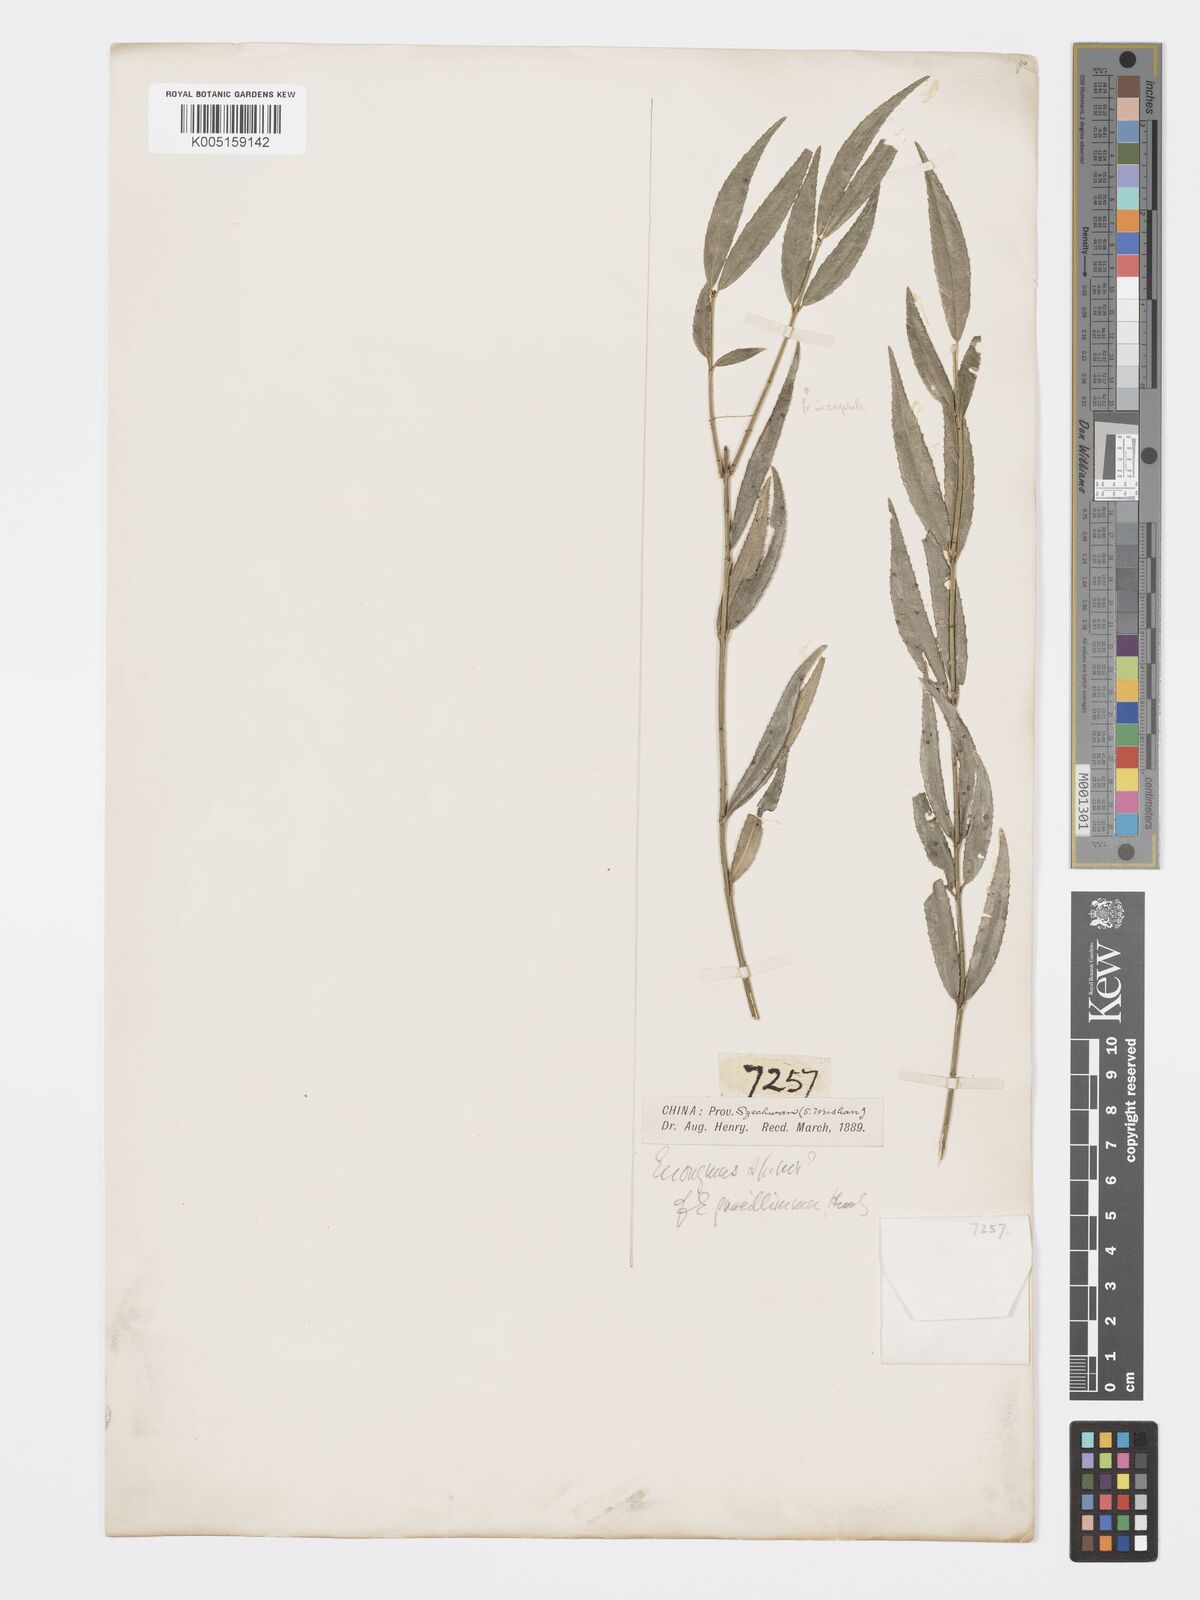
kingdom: Plantae
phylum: Tracheophyta
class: Magnoliopsida
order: Celastrales
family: Celastraceae
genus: Euonymus
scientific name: Euonymus gracillimus
